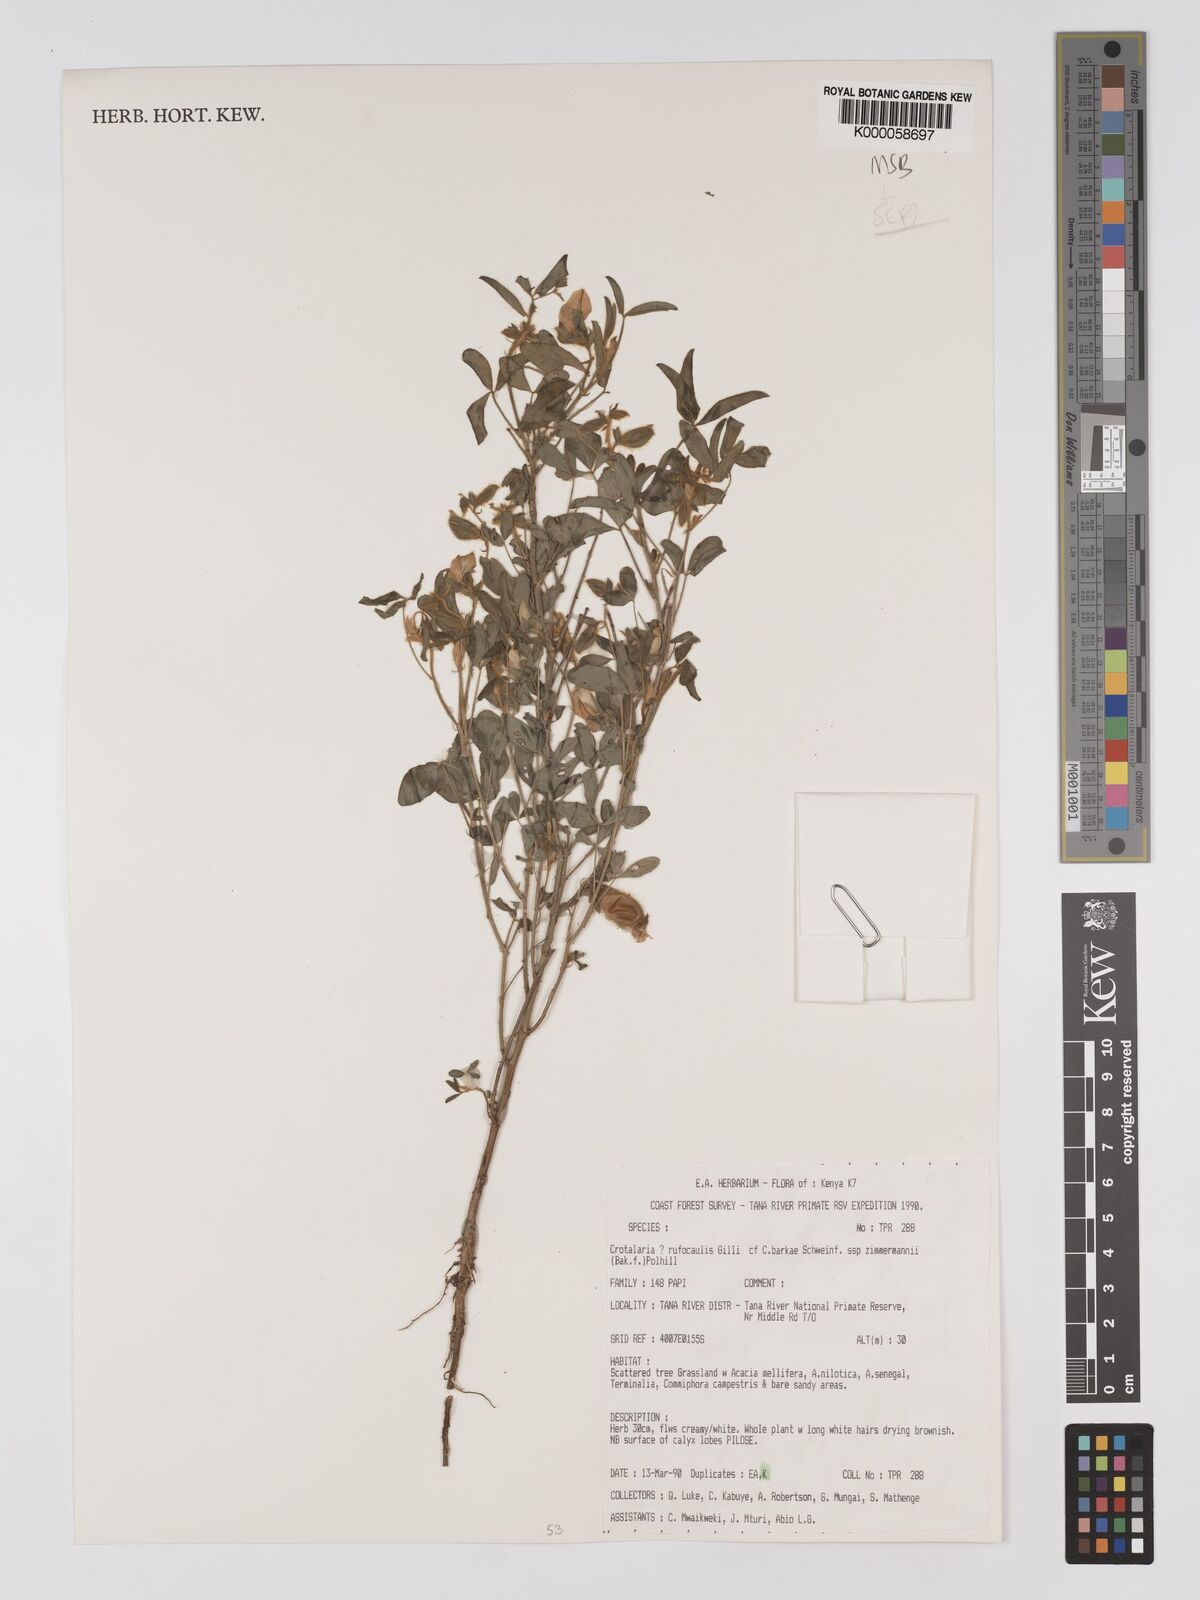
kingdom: Plantae
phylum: Tracheophyta
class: Magnoliopsida
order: Fabales
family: Fabaceae
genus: Crotalaria
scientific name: Crotalaria rufocaulis
